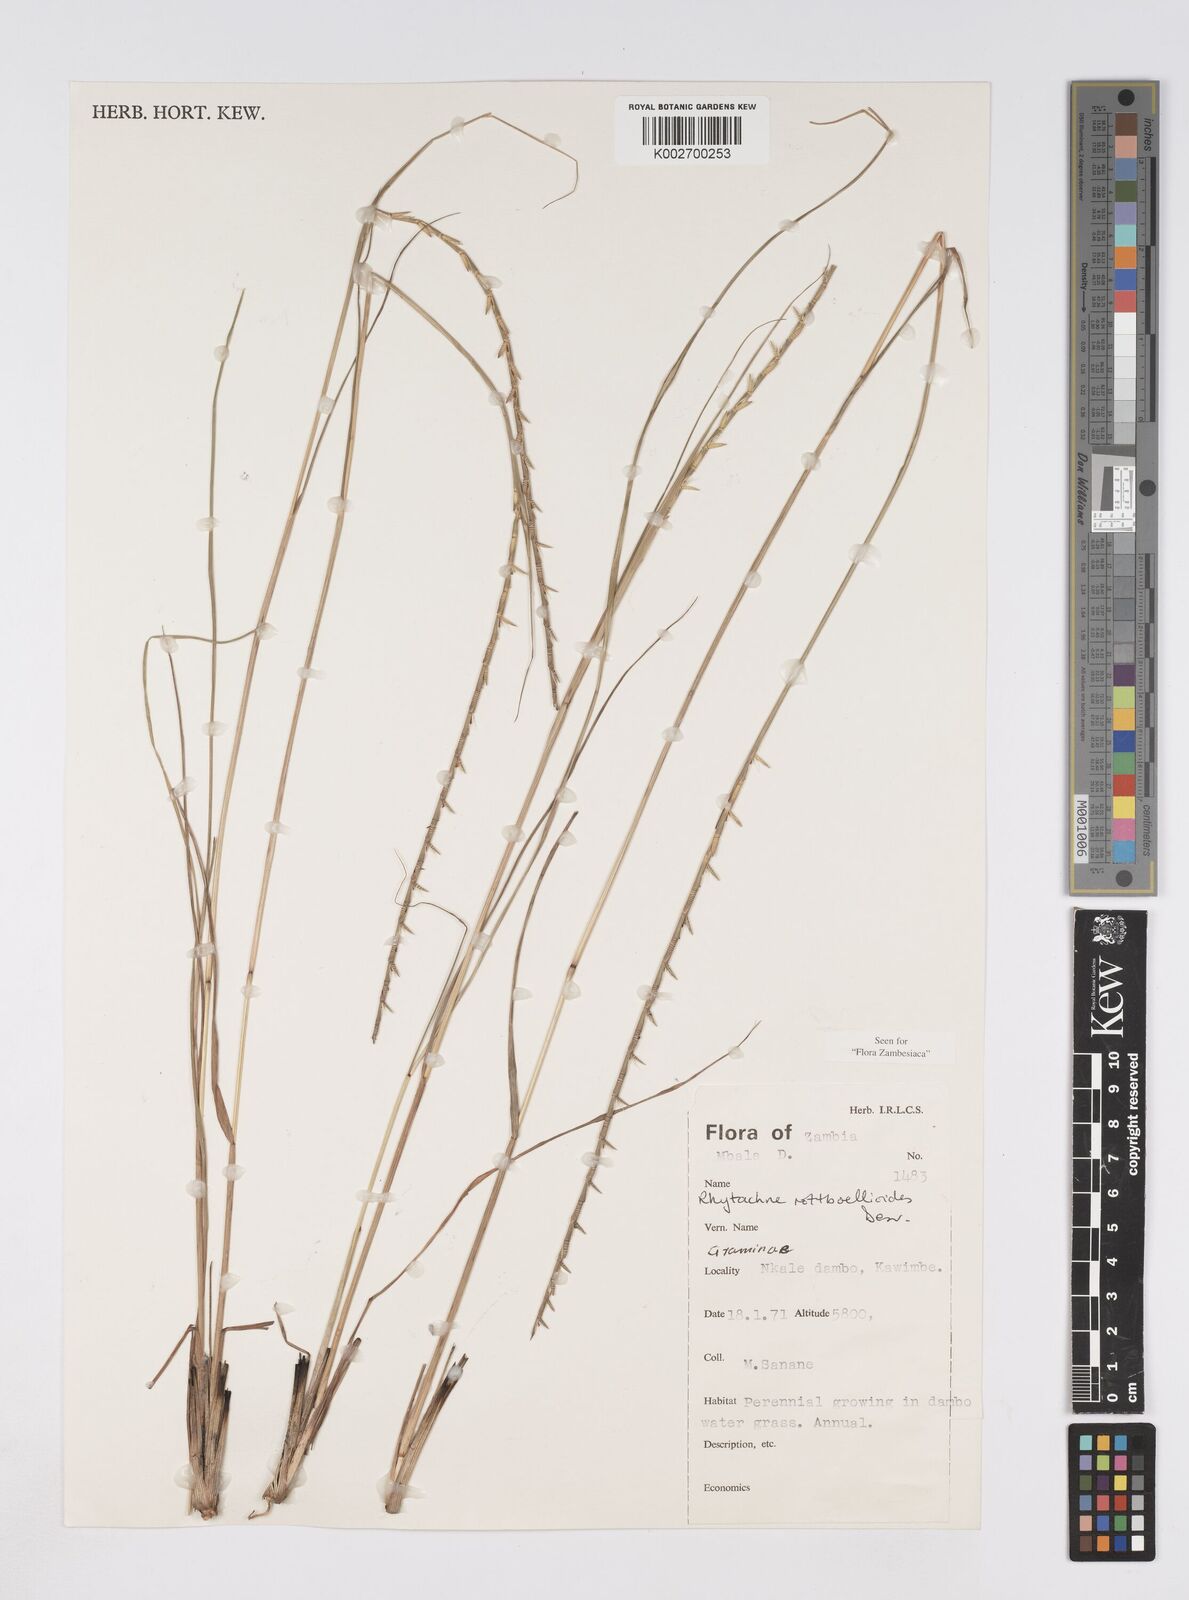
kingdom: Plantae
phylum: Tracheophyta
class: Liliopsida
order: Poales
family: Poaceae
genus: Rhytachne
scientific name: Rhytachne rottboellioides
